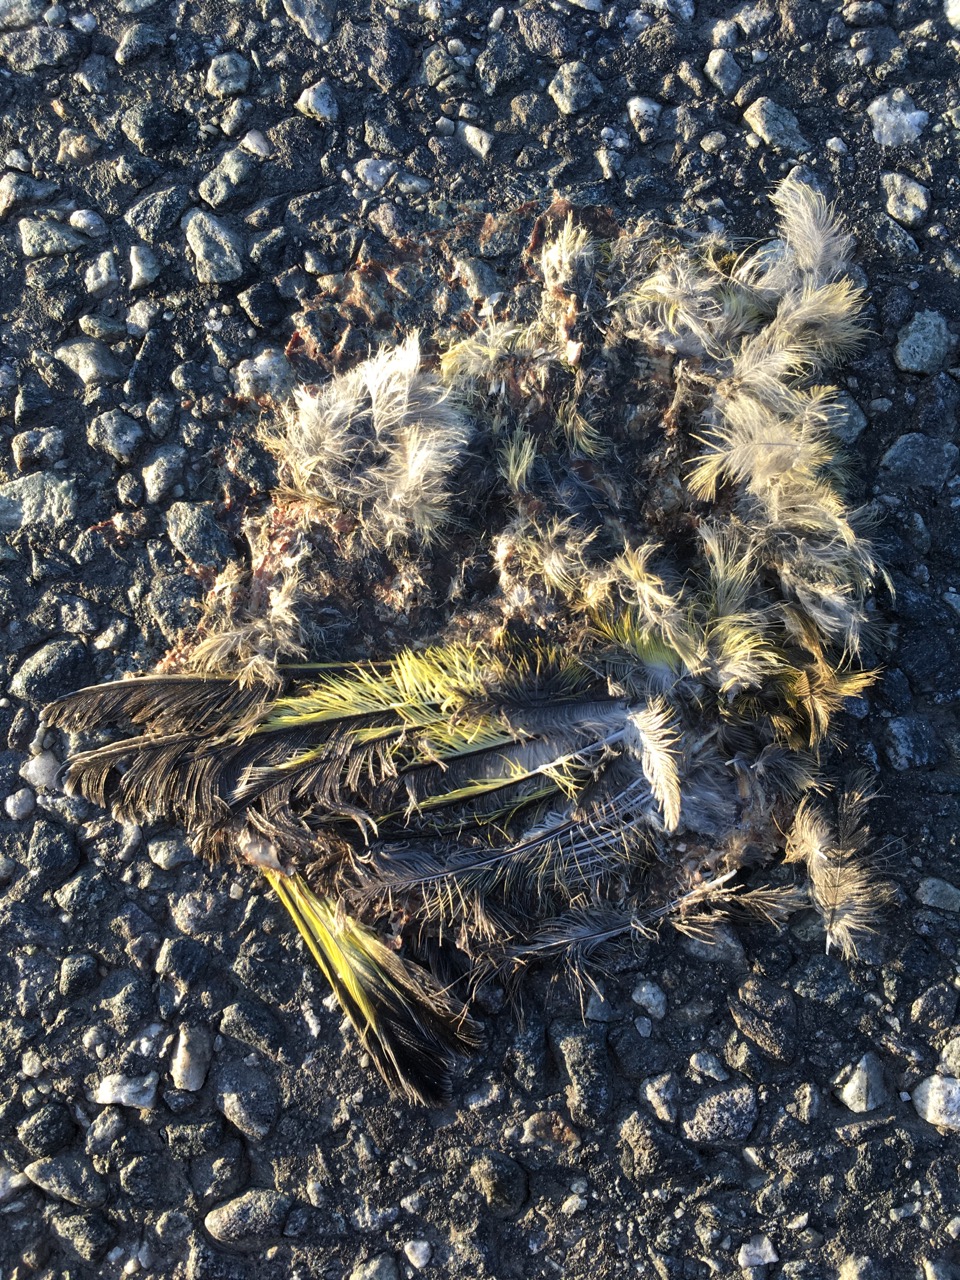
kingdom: Animalia
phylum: Chordata
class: Aves
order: Passeriformes
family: Fringillidae
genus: Carduelis
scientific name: Carduelis carduelis
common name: European goldfinch
